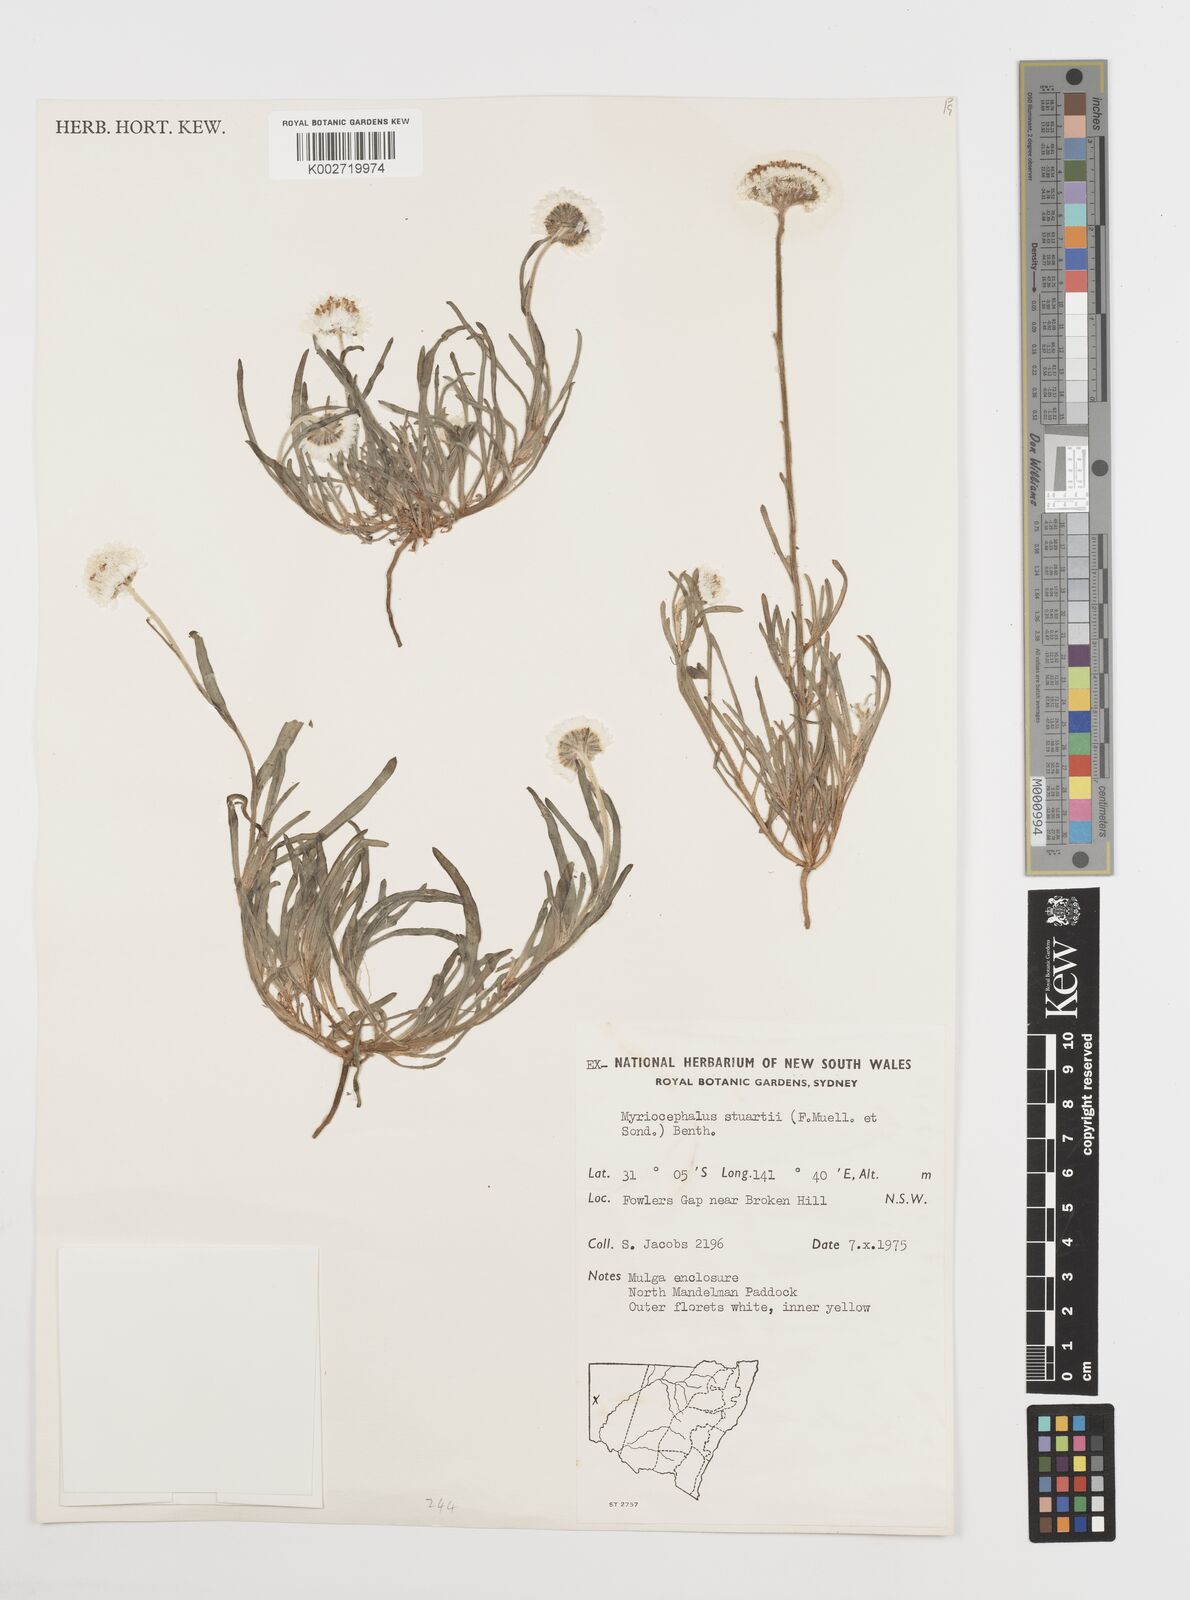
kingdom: Plantae
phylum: Tracheophyta
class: Magnoliopsida
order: Asterales
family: Asteraceae
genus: Polycalymma
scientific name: Polycalymma stuartii
